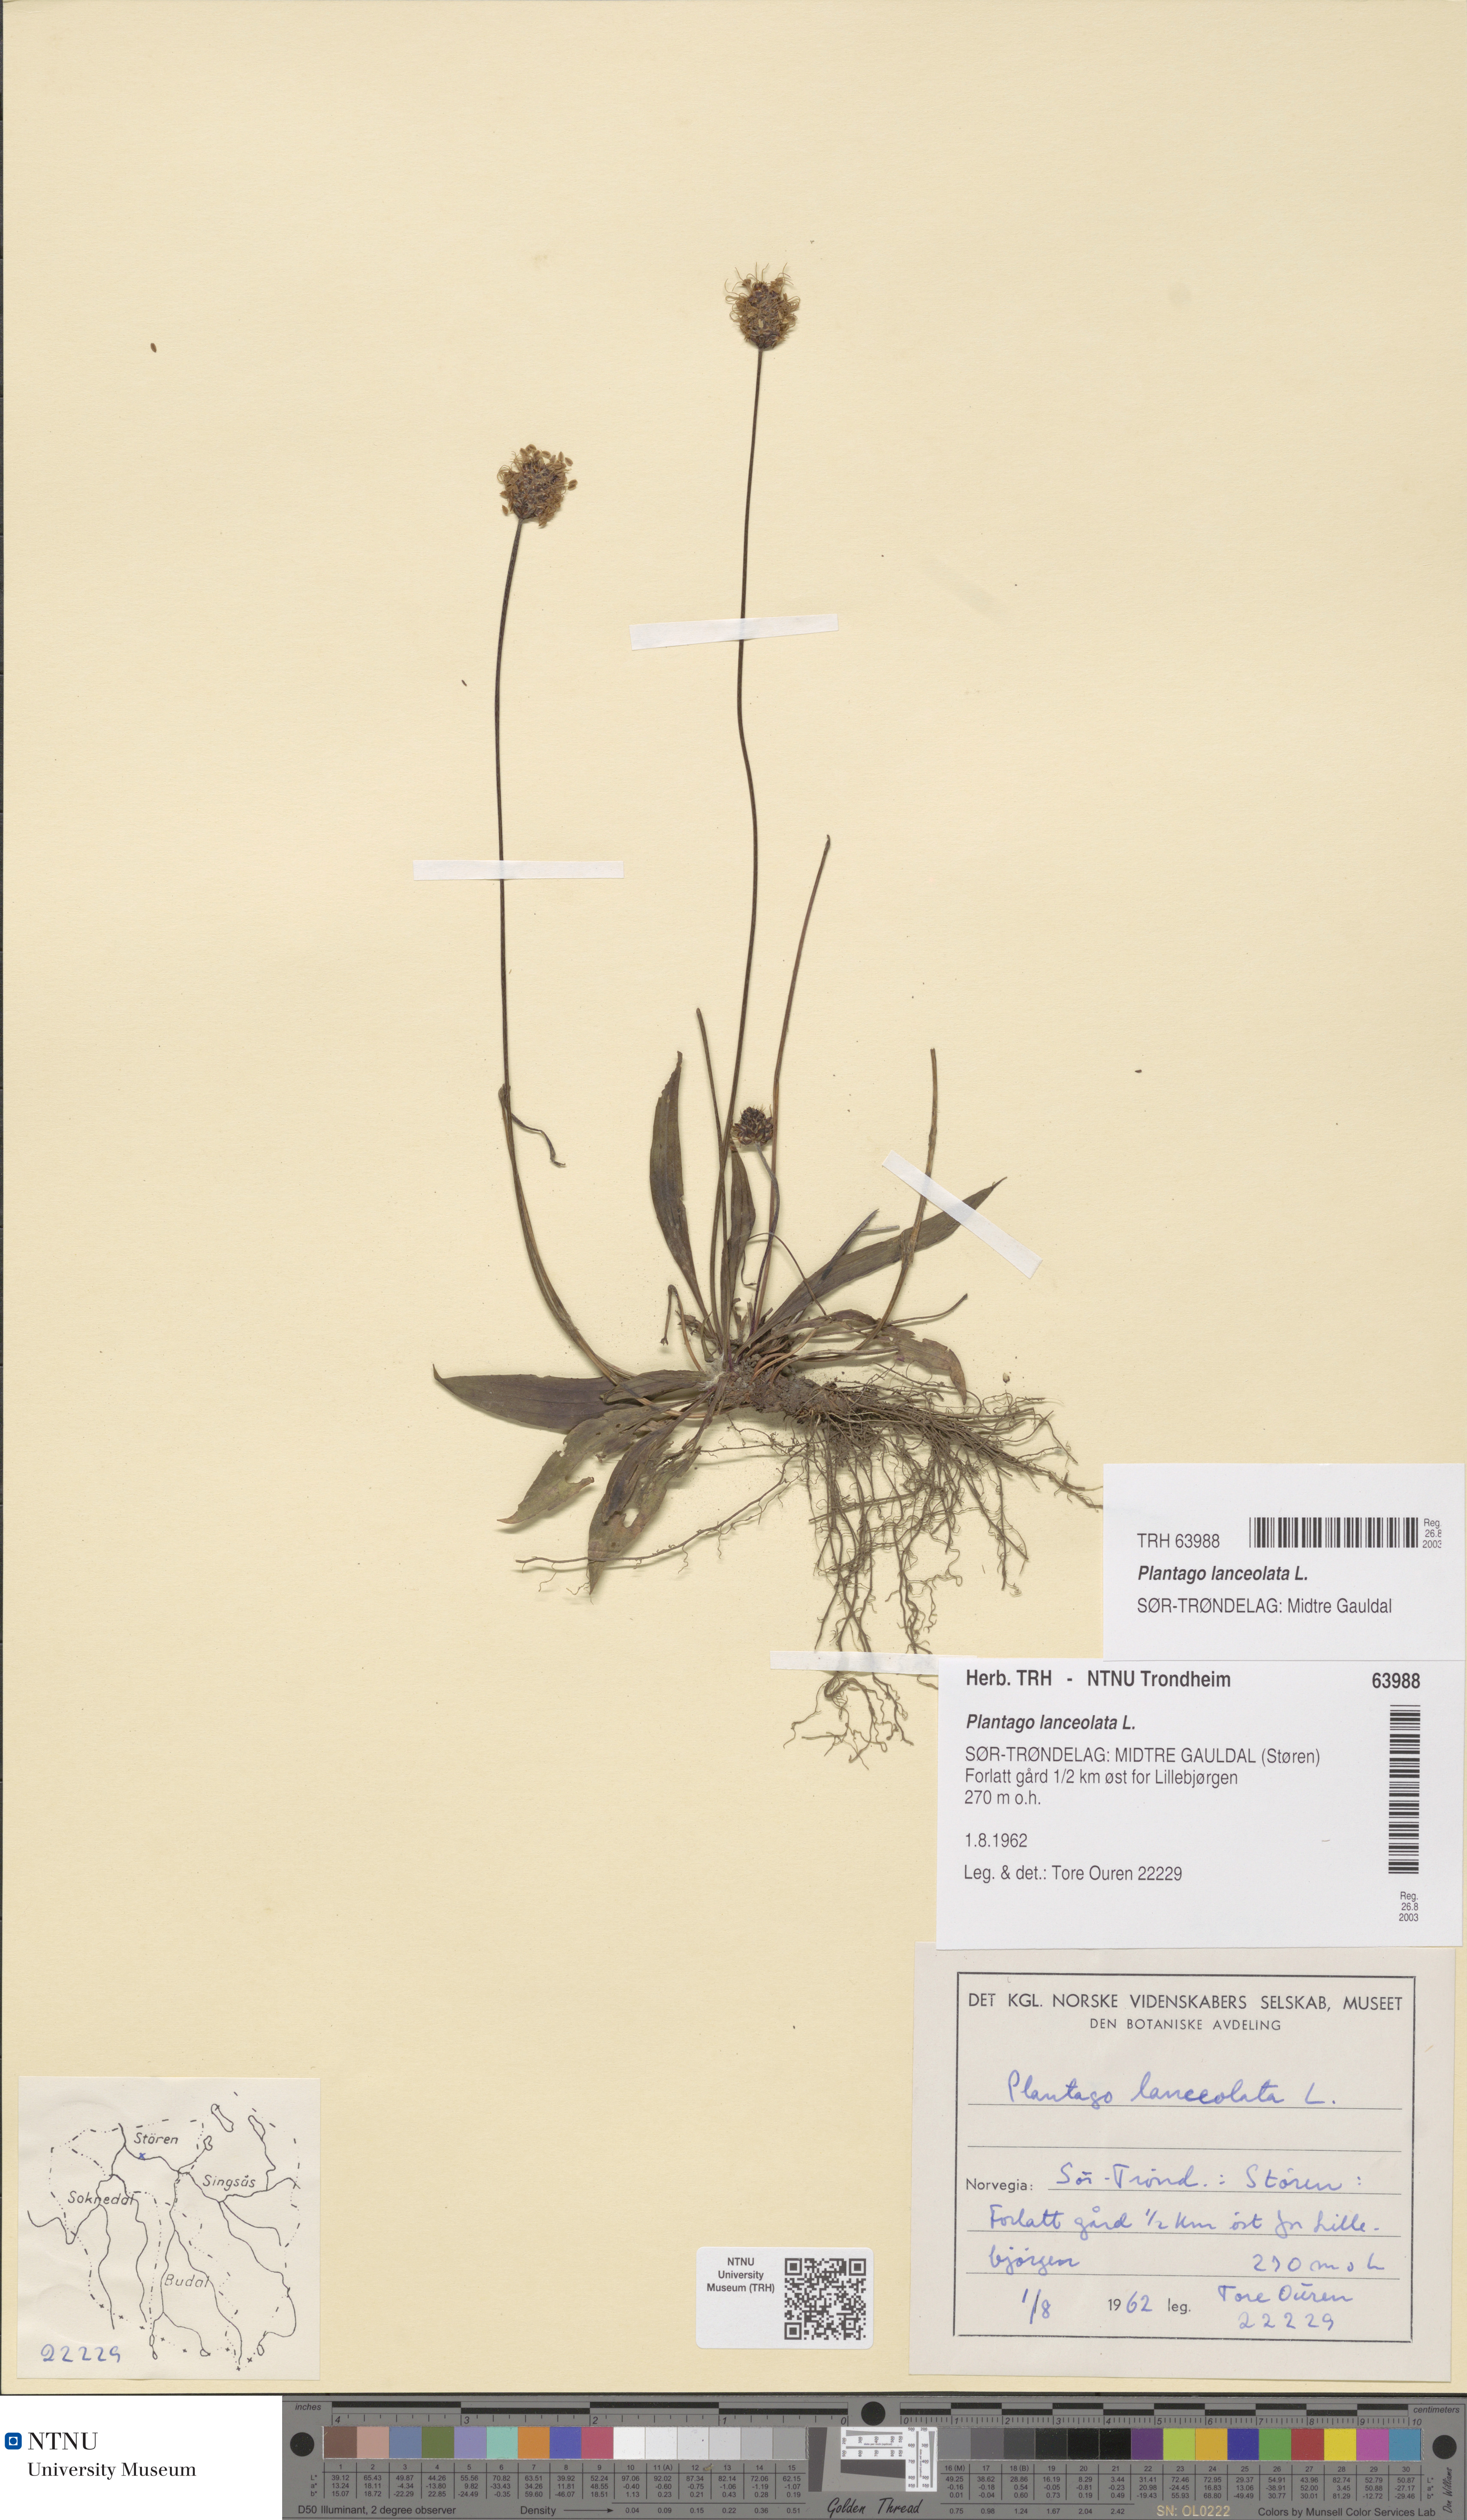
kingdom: Plantae
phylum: Tracheophyta
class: Magnoliopsida
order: Lamiales
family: Plantaginaceae
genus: Plantago
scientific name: Plantago lanceolata
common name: Ribwort plantain
